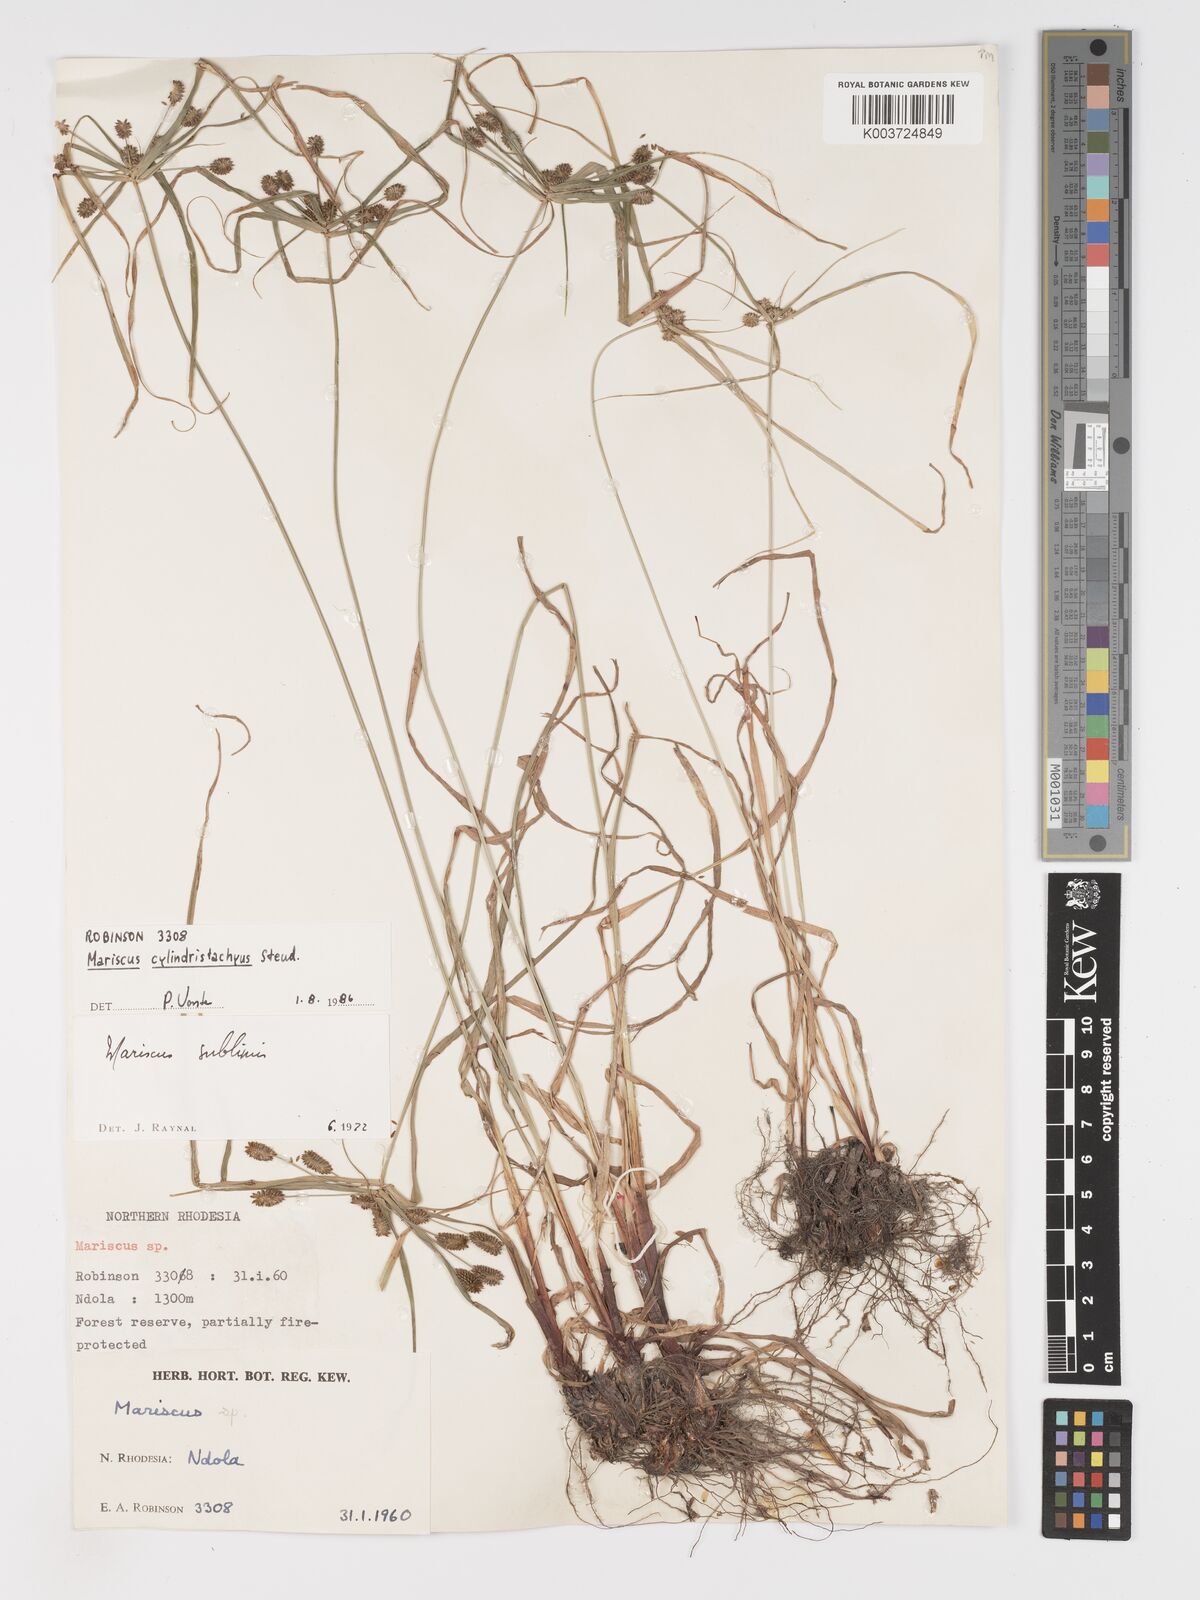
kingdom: Plantae
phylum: Tracheophyta
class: Liliopsida
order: Poales
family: Cyperaceae
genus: Cyperus
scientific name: Cyperus cyperoides
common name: Pacific island flat sedge
